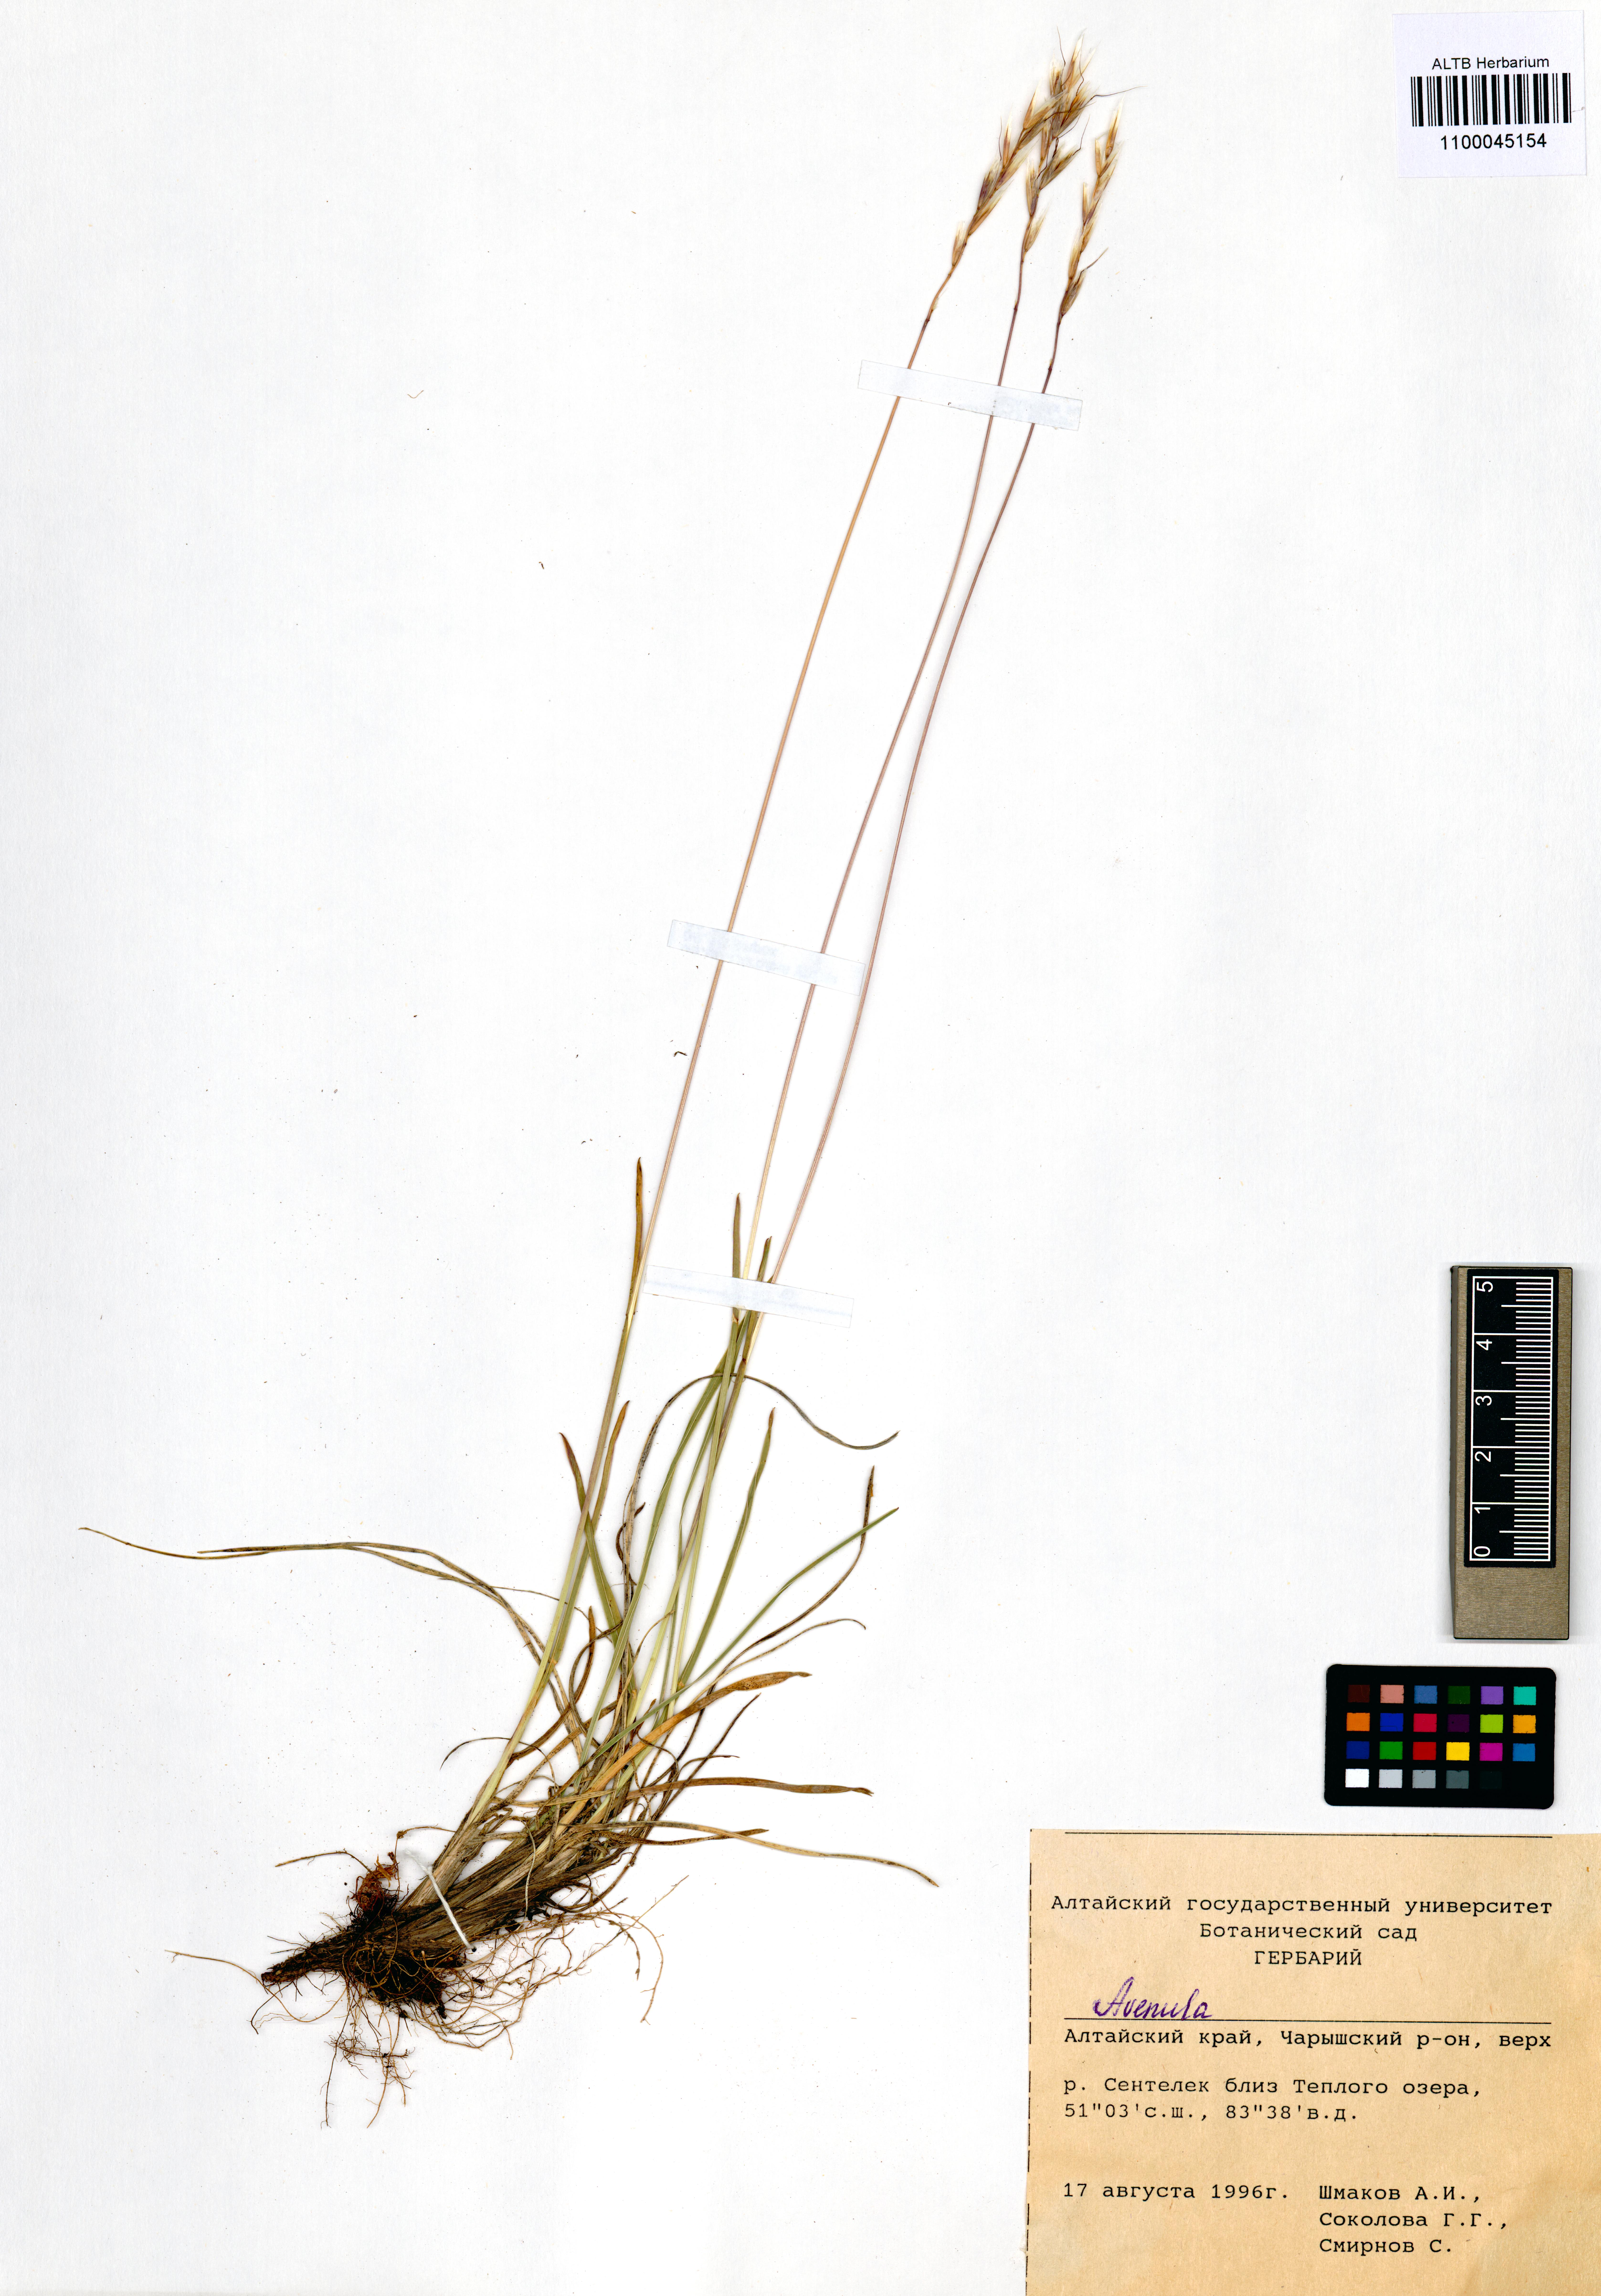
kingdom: Plantae
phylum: Tracheophyta
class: Liliopsida
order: Poales
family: Poaceae
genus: Avenula
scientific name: Avenula
